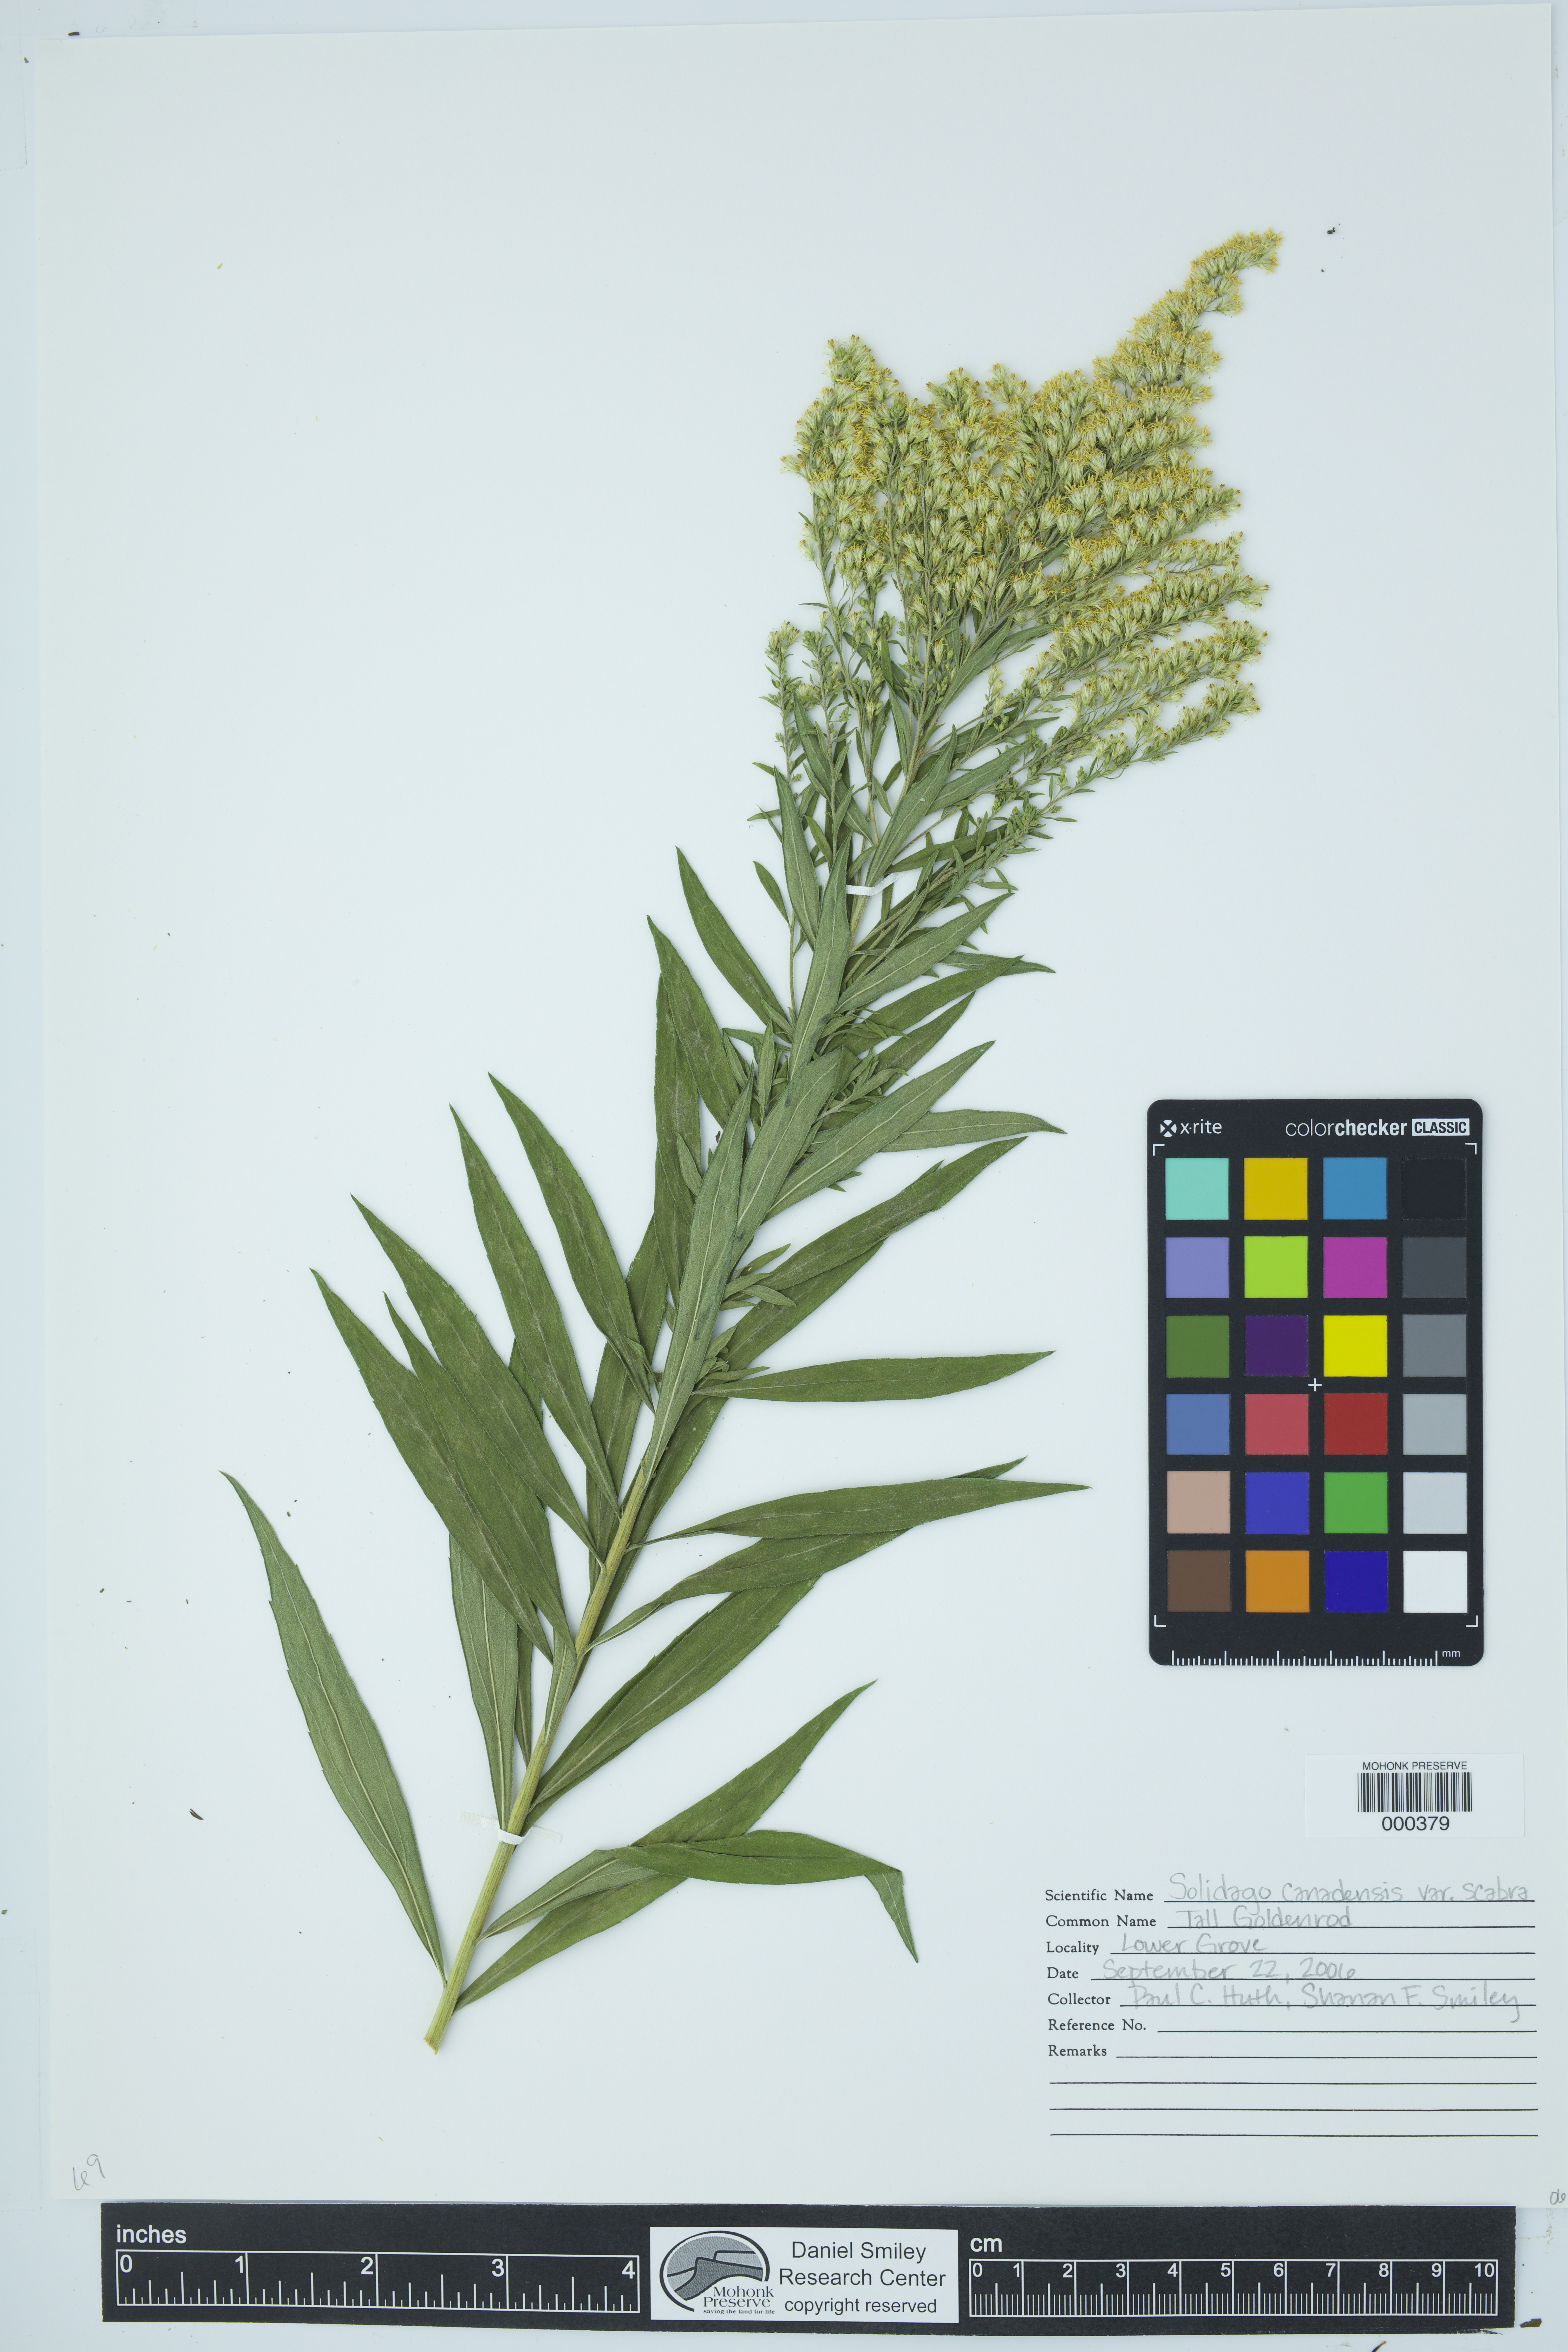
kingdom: Plantae
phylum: Tracheophyta
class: Magnoliopsida
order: Asterales
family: Asteraceae
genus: Solidago
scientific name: Solidago canadensis
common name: Canada goldenrod
